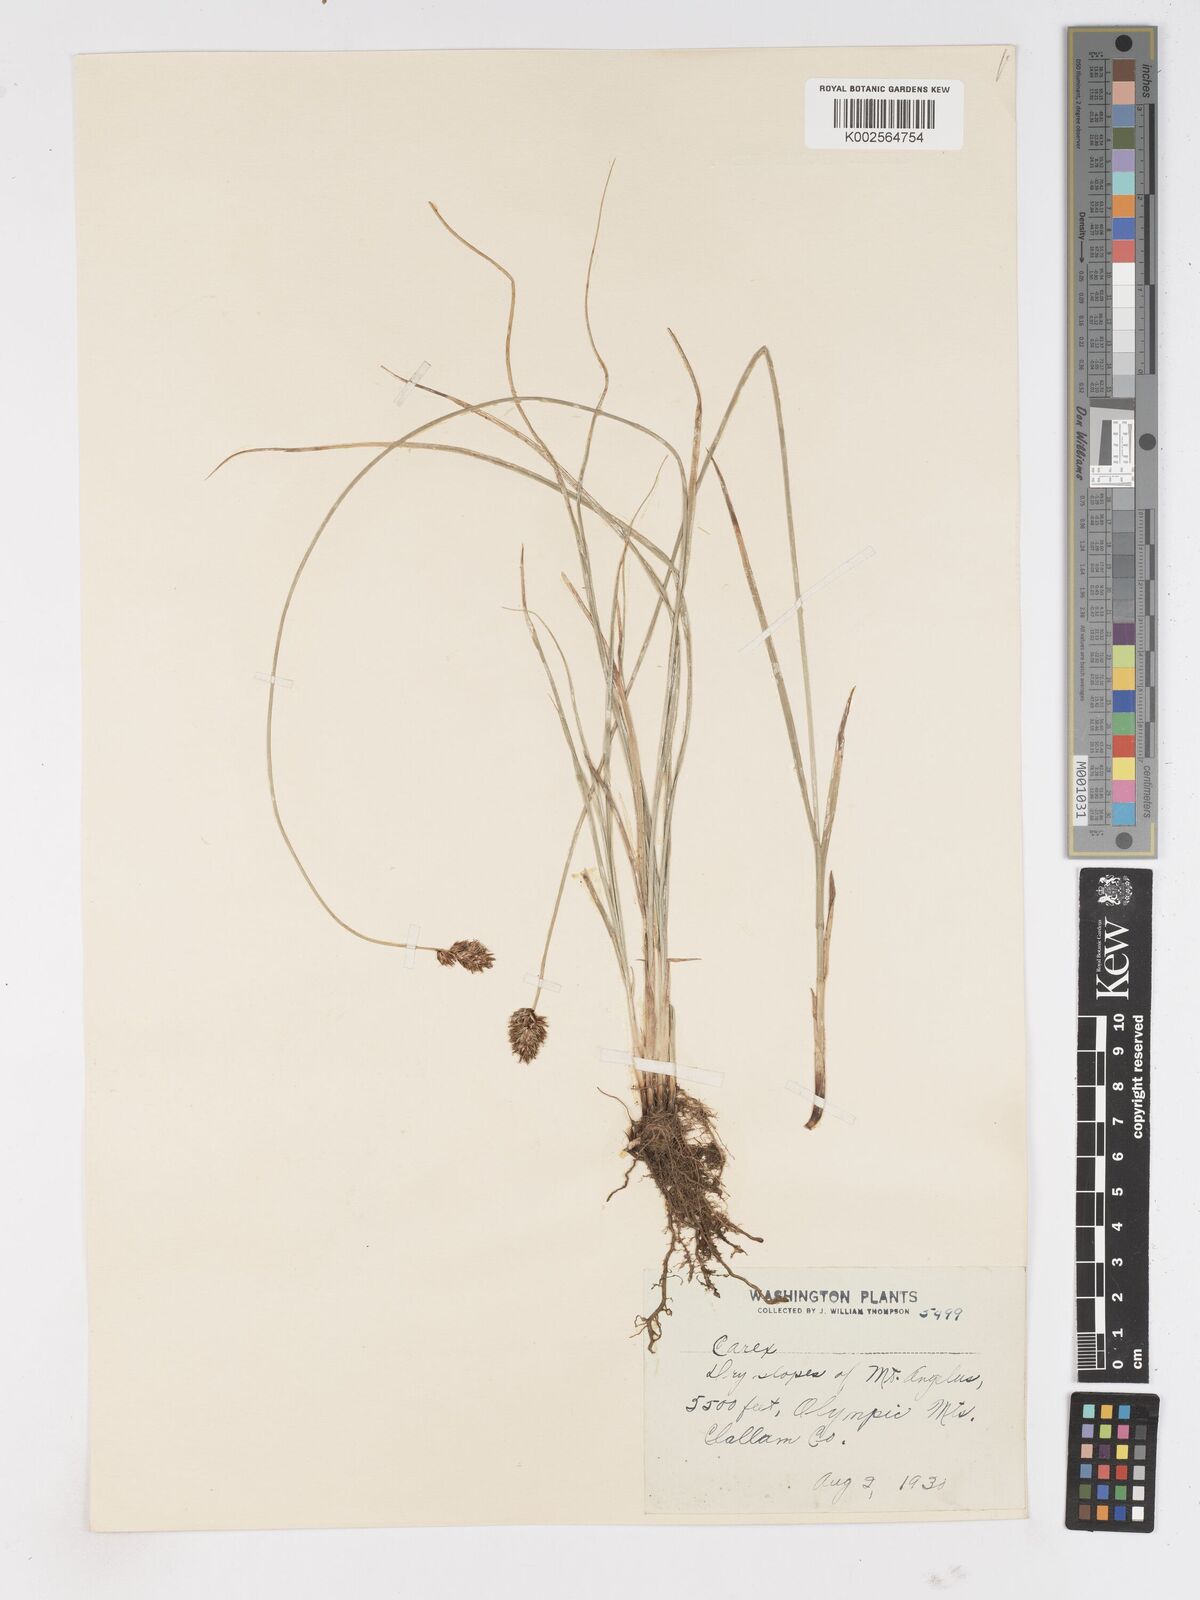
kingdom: Plantae
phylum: Tracheophyta
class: Liliopsida
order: Poales
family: Cyperaceae
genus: Carex
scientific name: Carex
